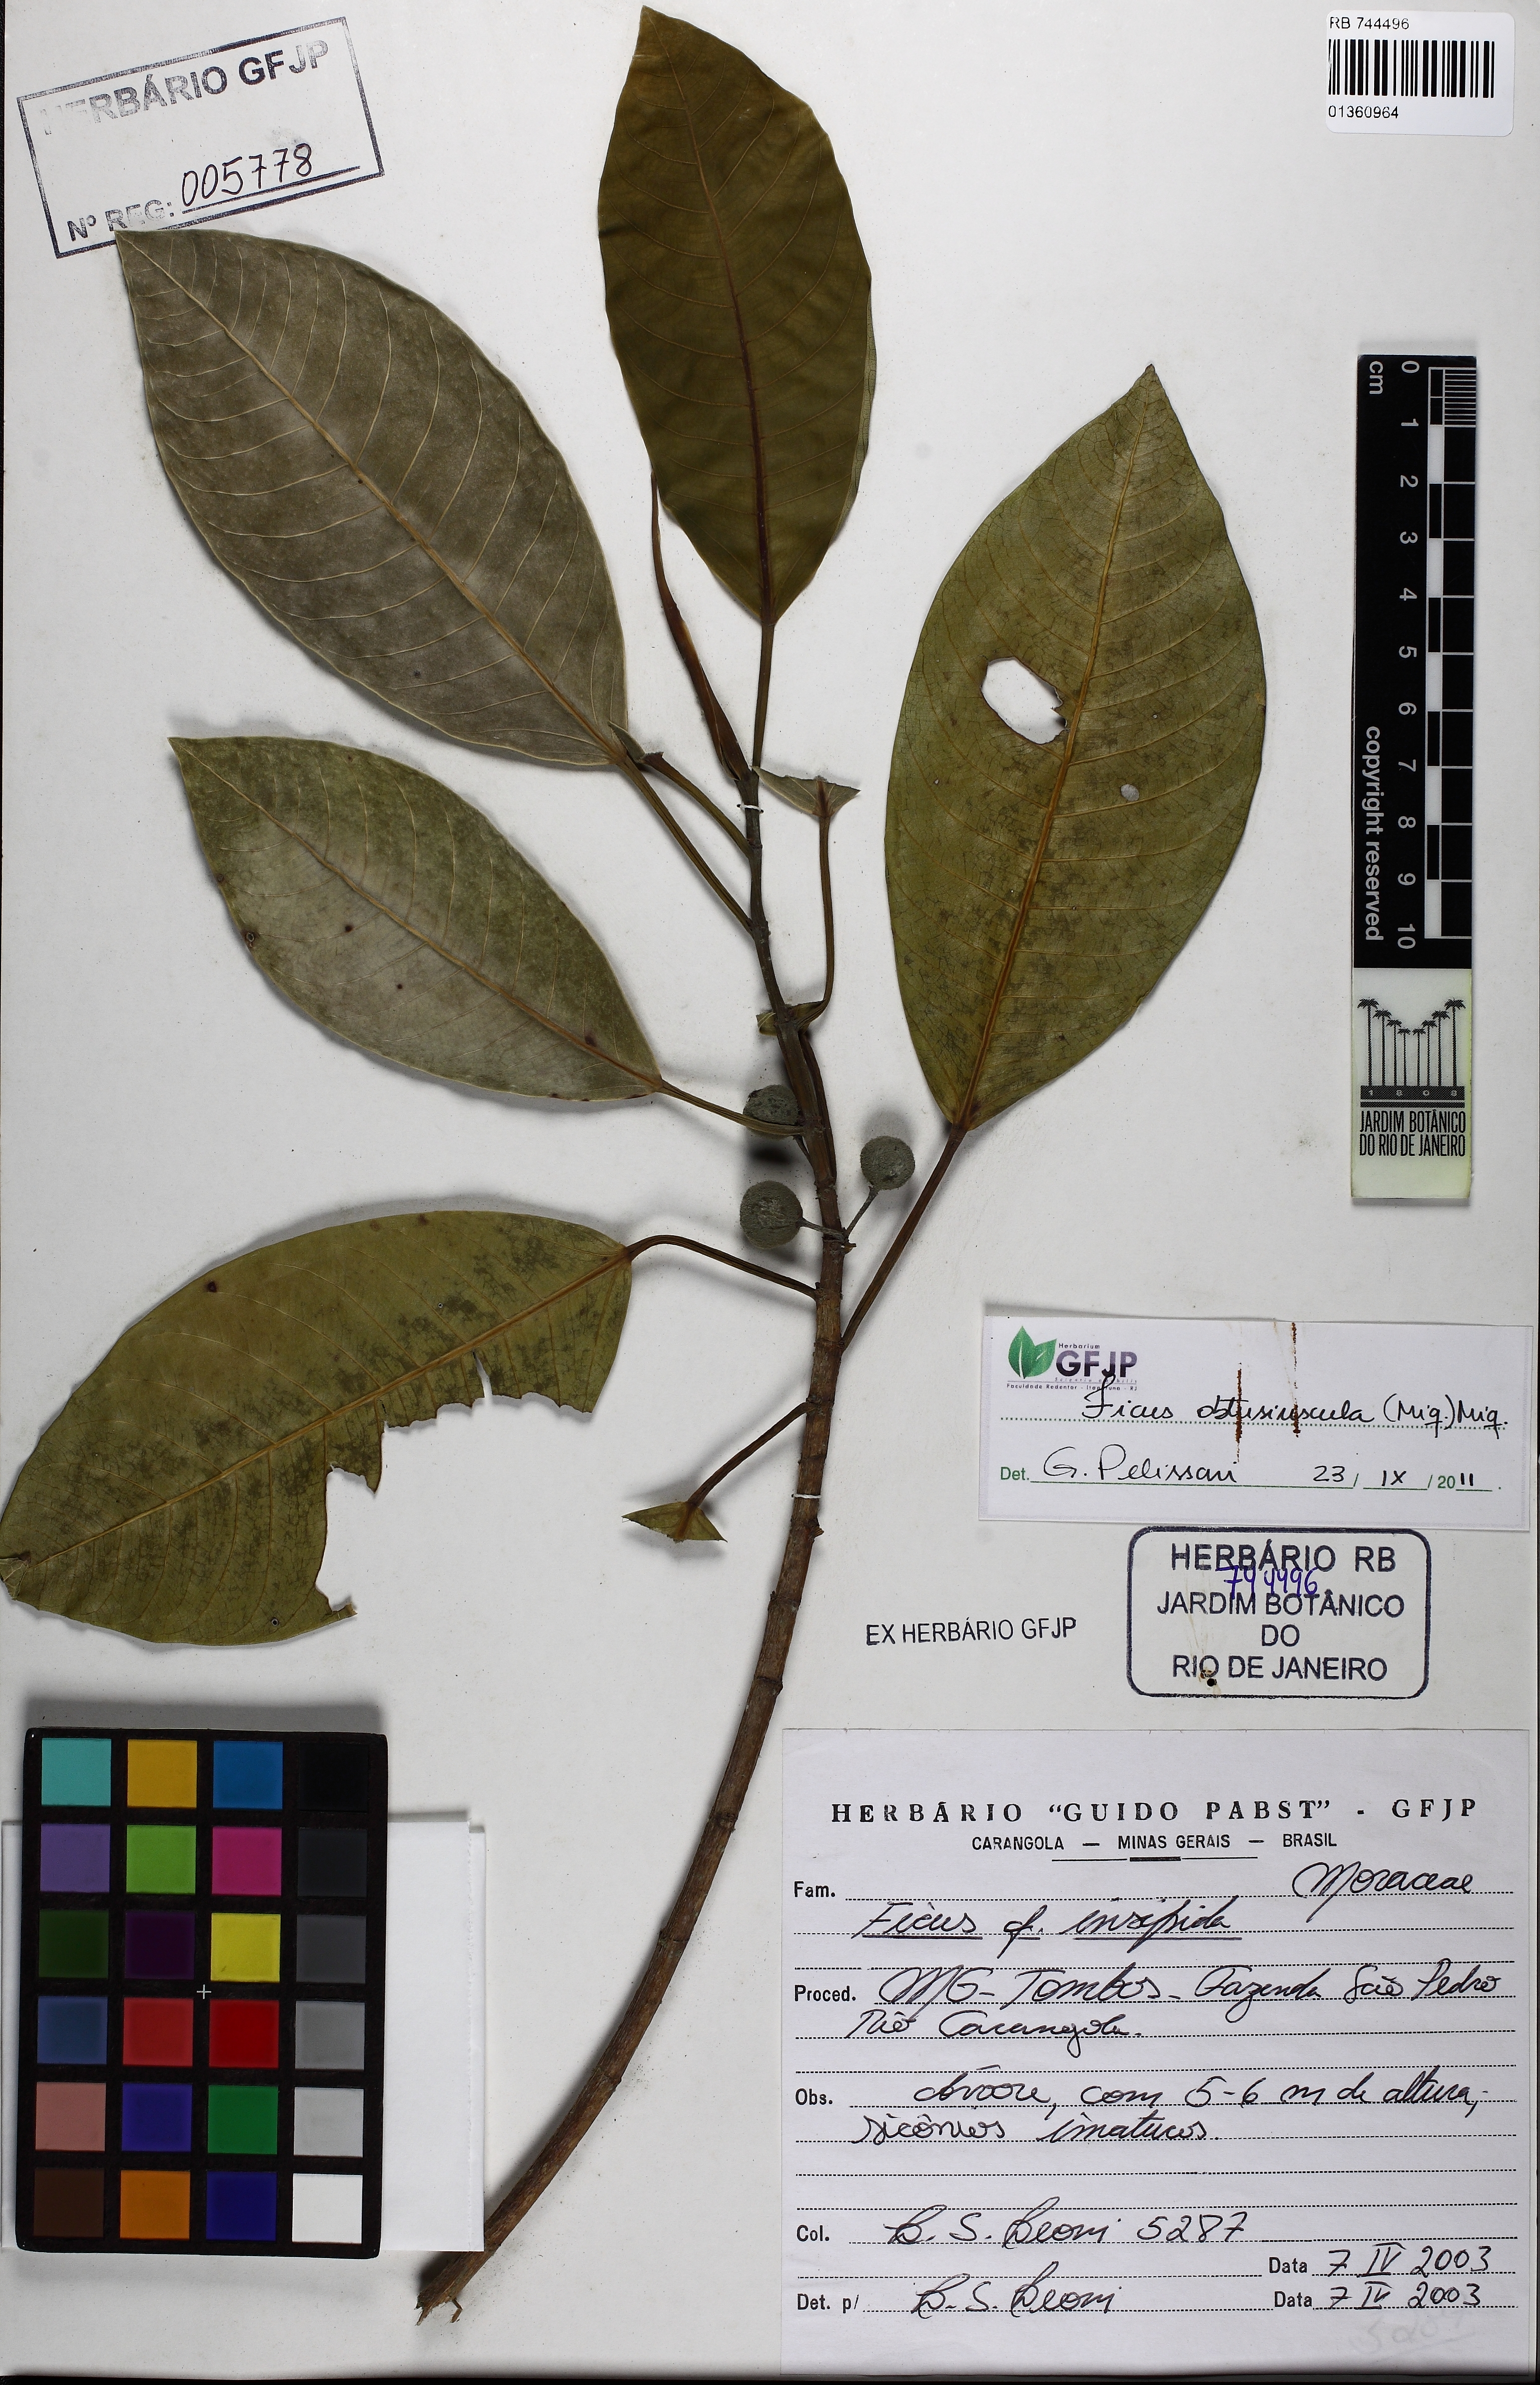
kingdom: Plantae
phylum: Tracheophyta
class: Magnoliopsida
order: Rosales
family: Moraceae
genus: Ficus
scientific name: Ficus obtusifolia
